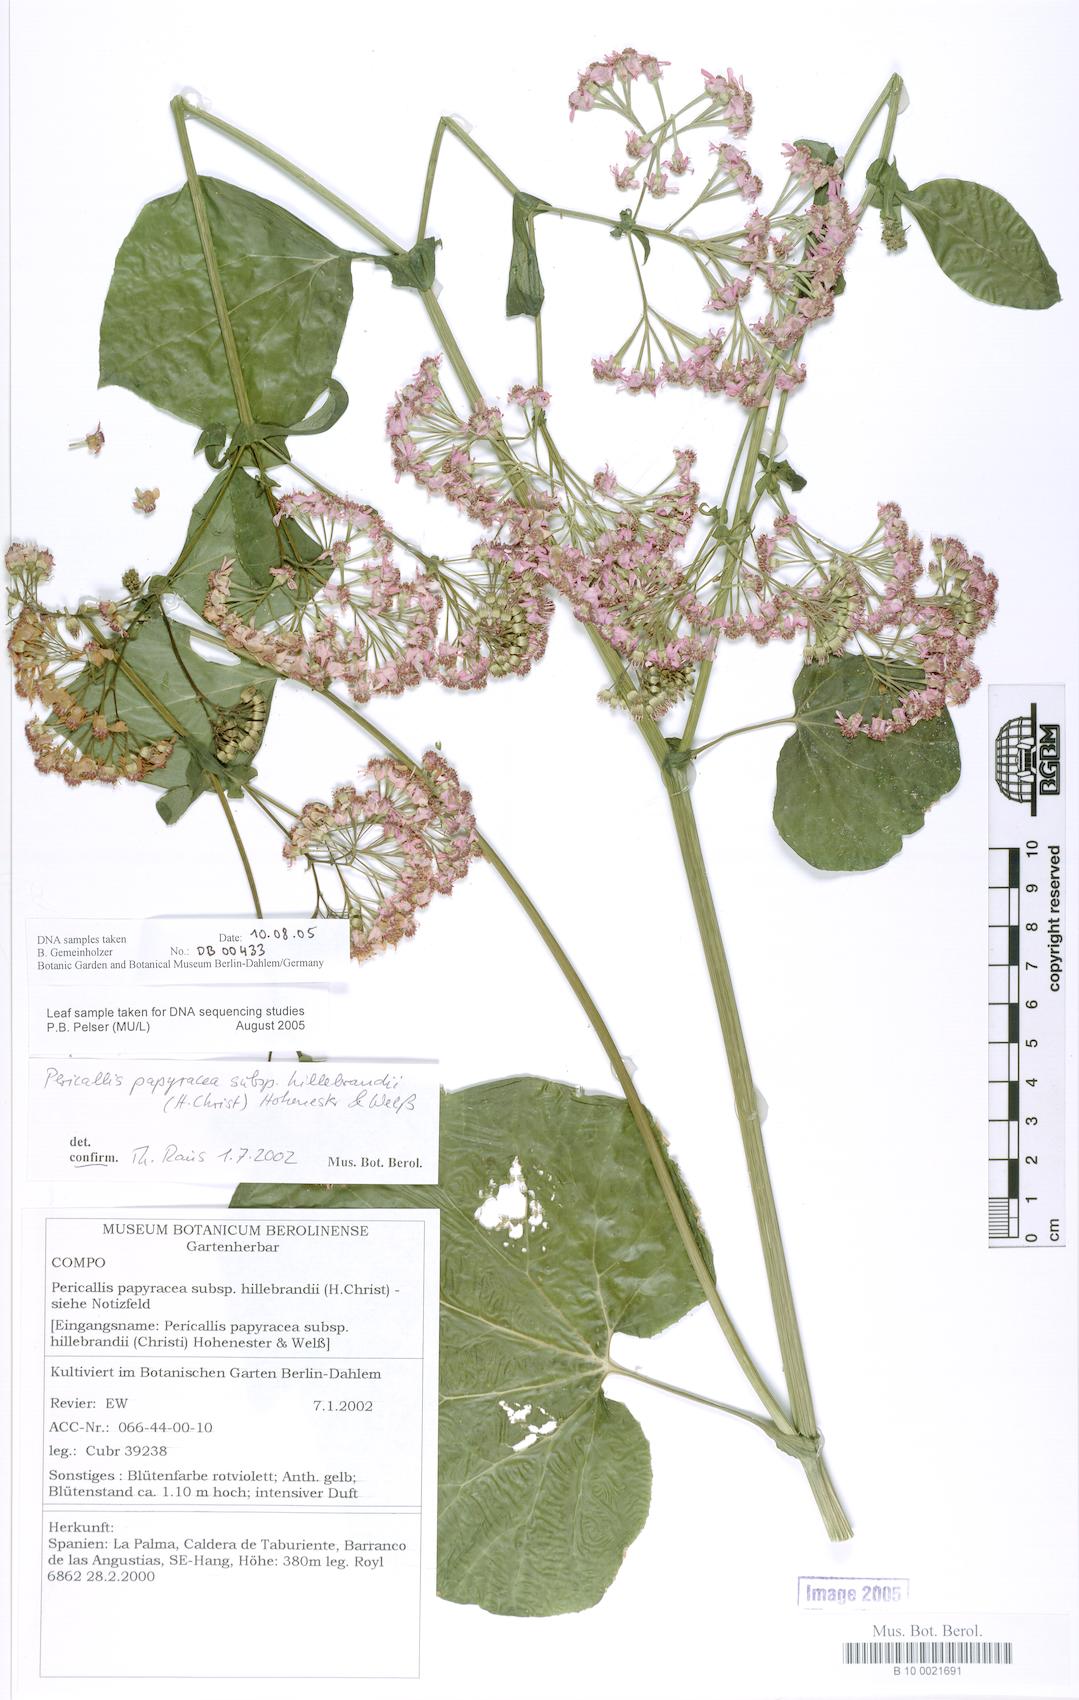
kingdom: Plantae
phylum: Tracheophyta
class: Magnoliopsida
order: Asterales
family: Asteraceae
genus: Pericallis
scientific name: Pericallis papyracea
